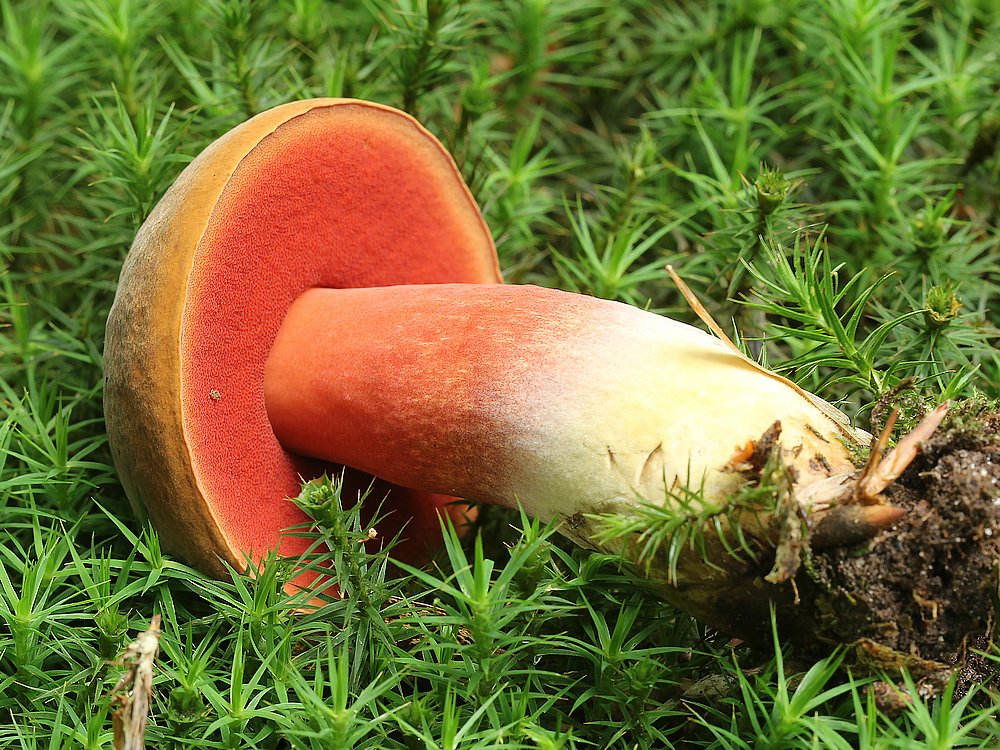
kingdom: Fungi
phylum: Basidiomycota
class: Agaricomycetes
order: Boletales
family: Boletaceae
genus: Neoboletus
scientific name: Neoboletus erythropus
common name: punktstokket indigorørhat
